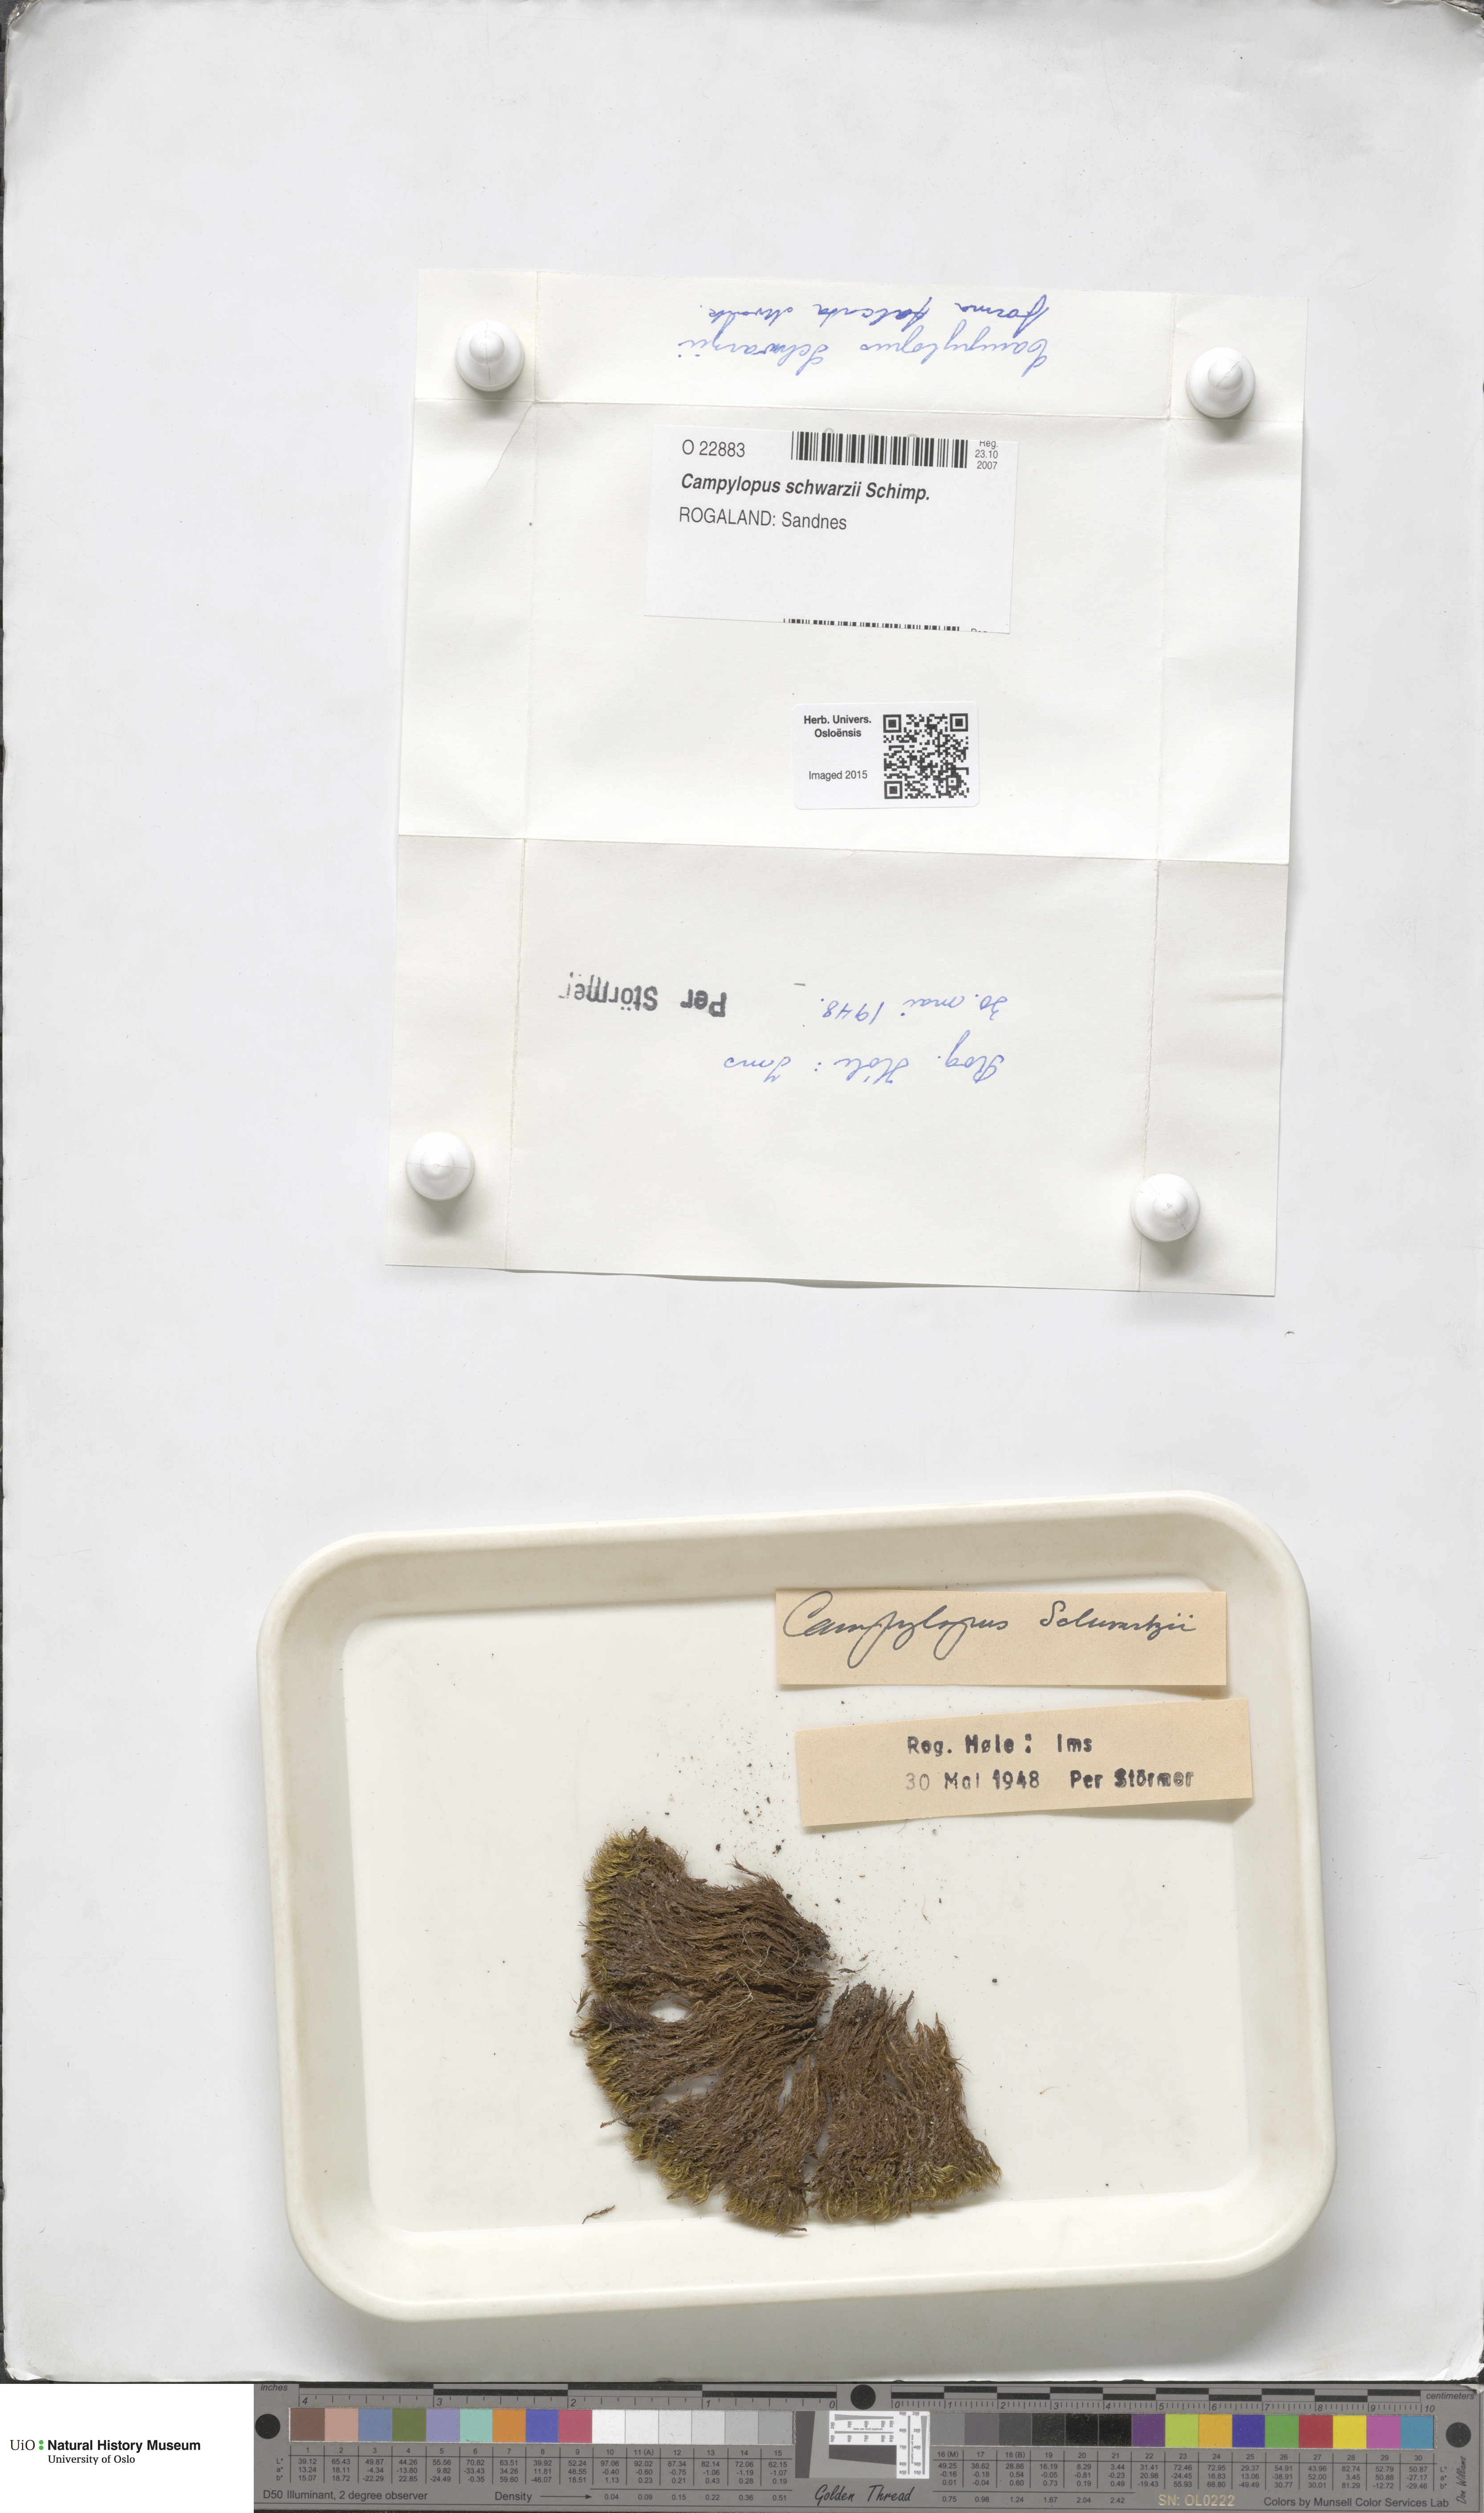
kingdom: Plantae
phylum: Bryophyta
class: Bryopsida
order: Dicranales
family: Leucobryaceae
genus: Campylopus
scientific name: Campylopus gracilis
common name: Schwarz's swan-neck moss
